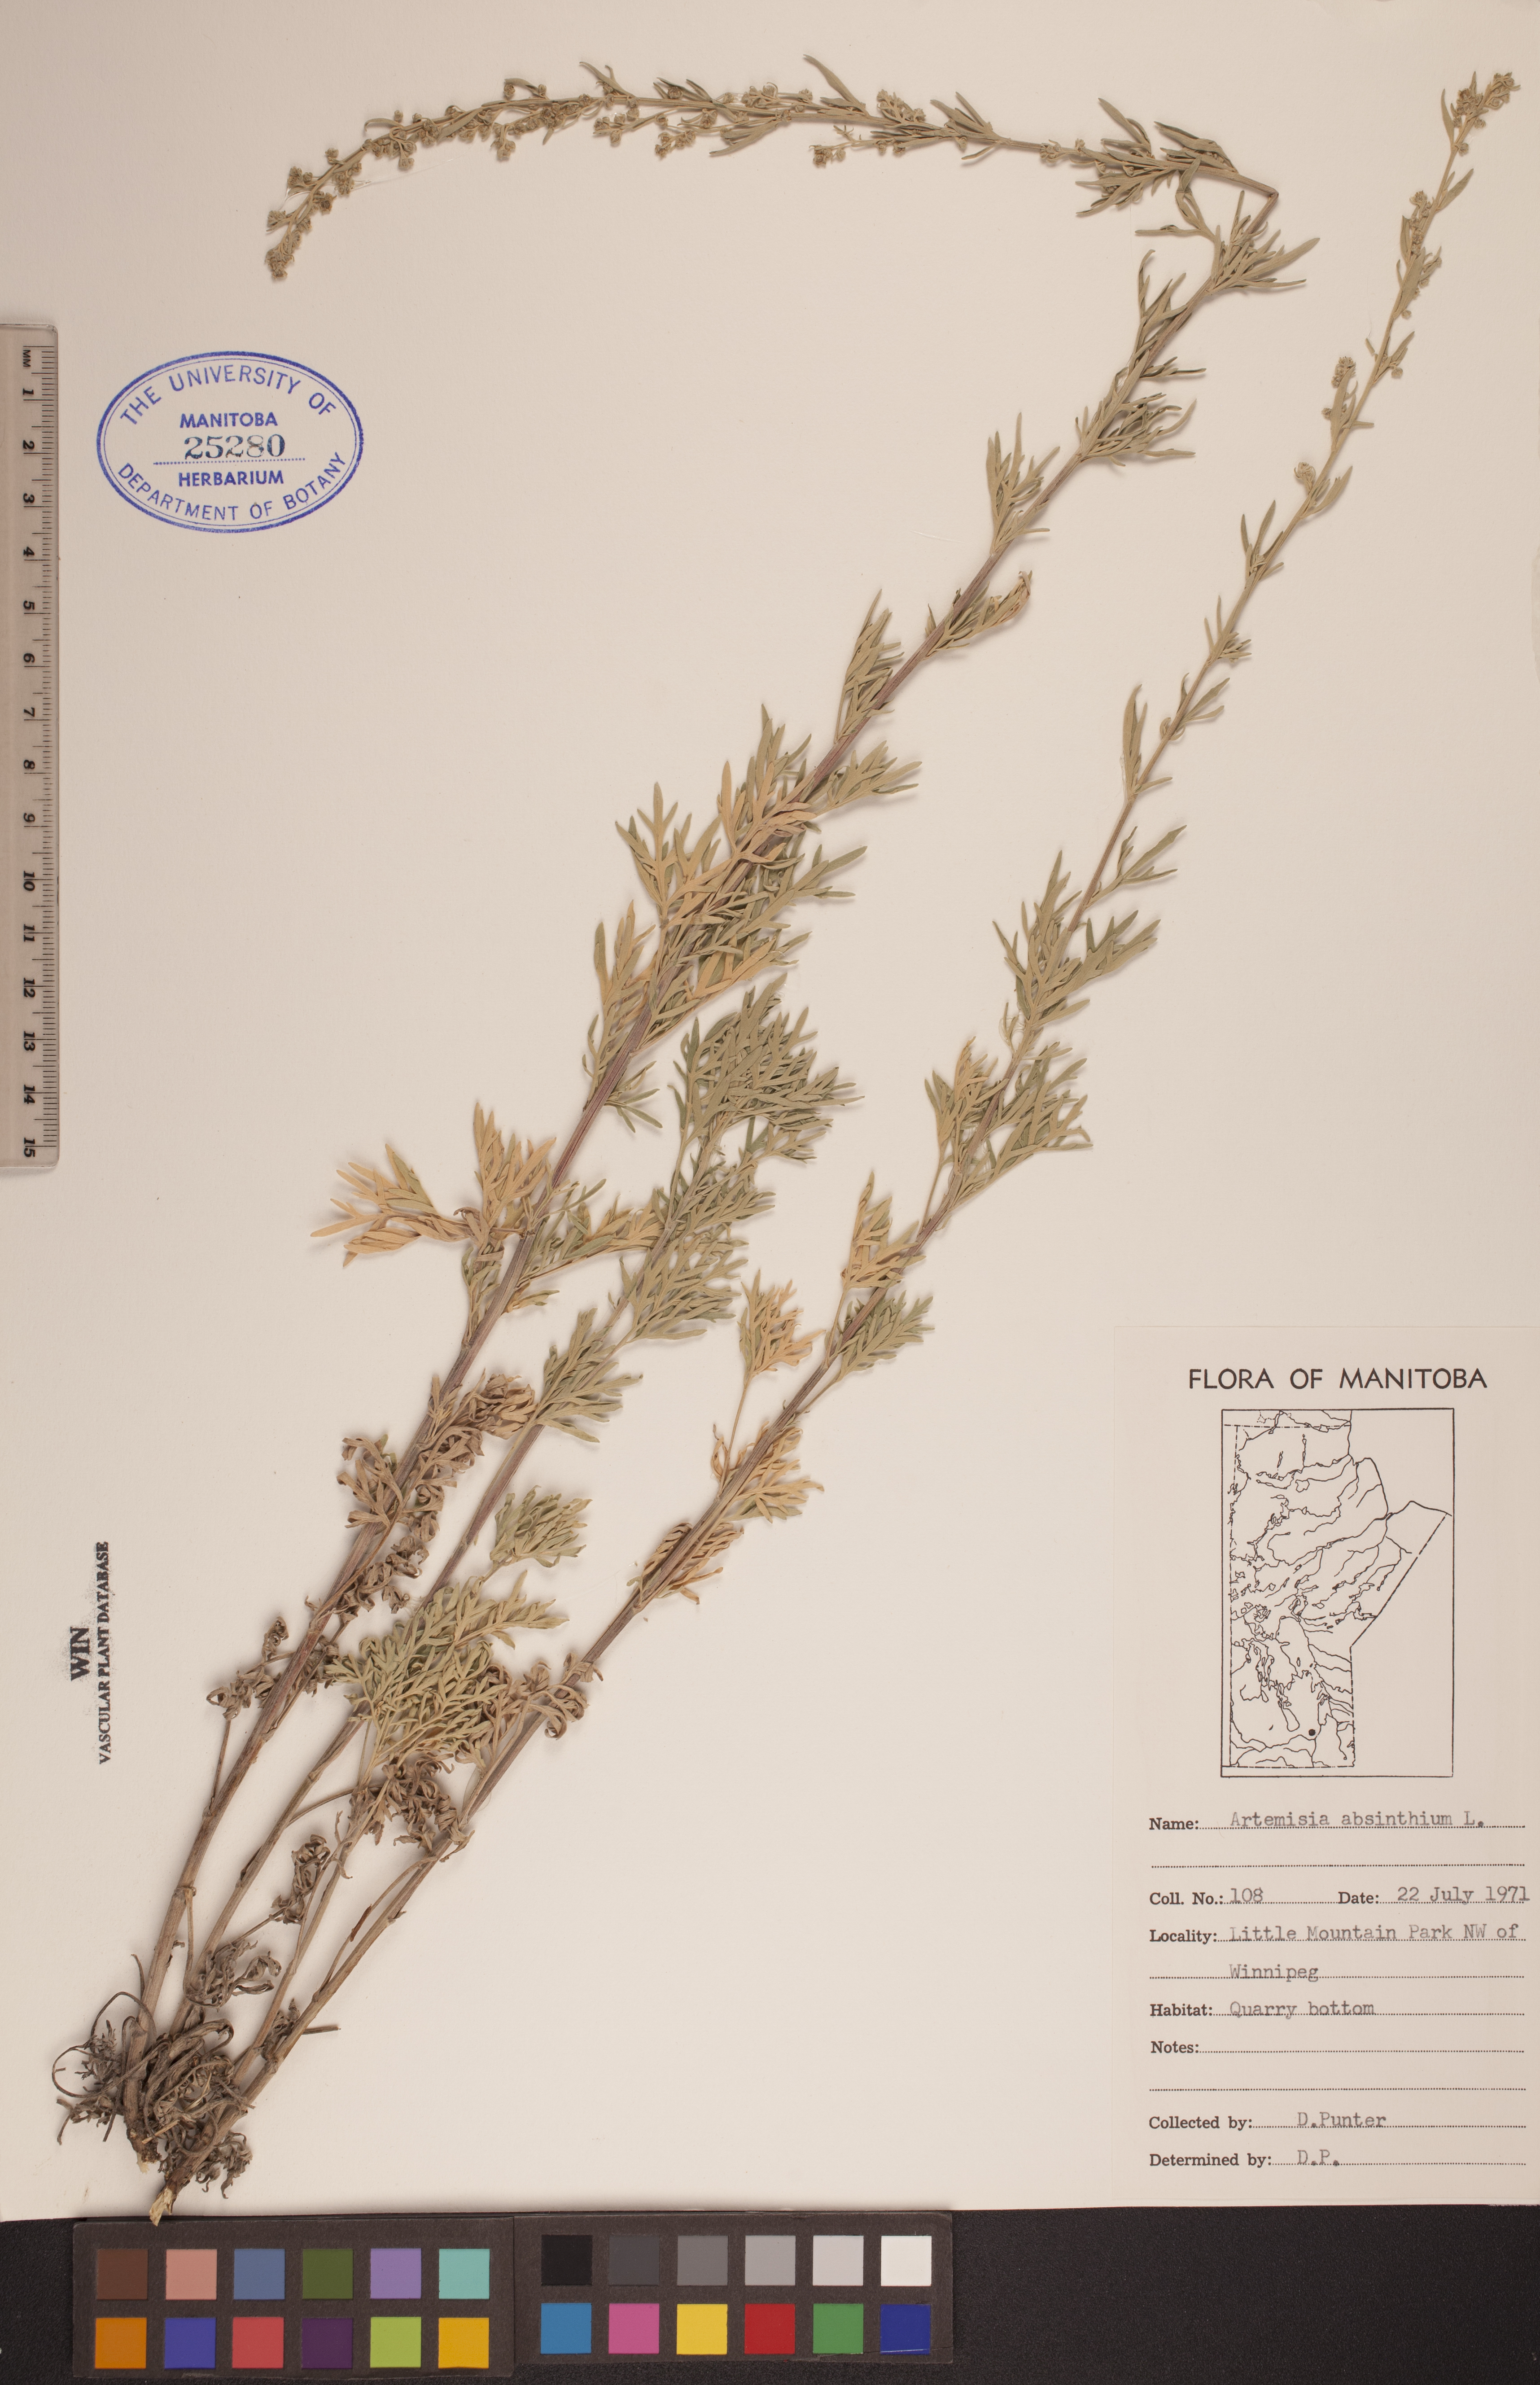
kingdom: Plantae
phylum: Tracheophyta
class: Magnoliopsida
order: Asterales
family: Asteraceae
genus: Artemisia
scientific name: Artemisia absinthium
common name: Wormwood
